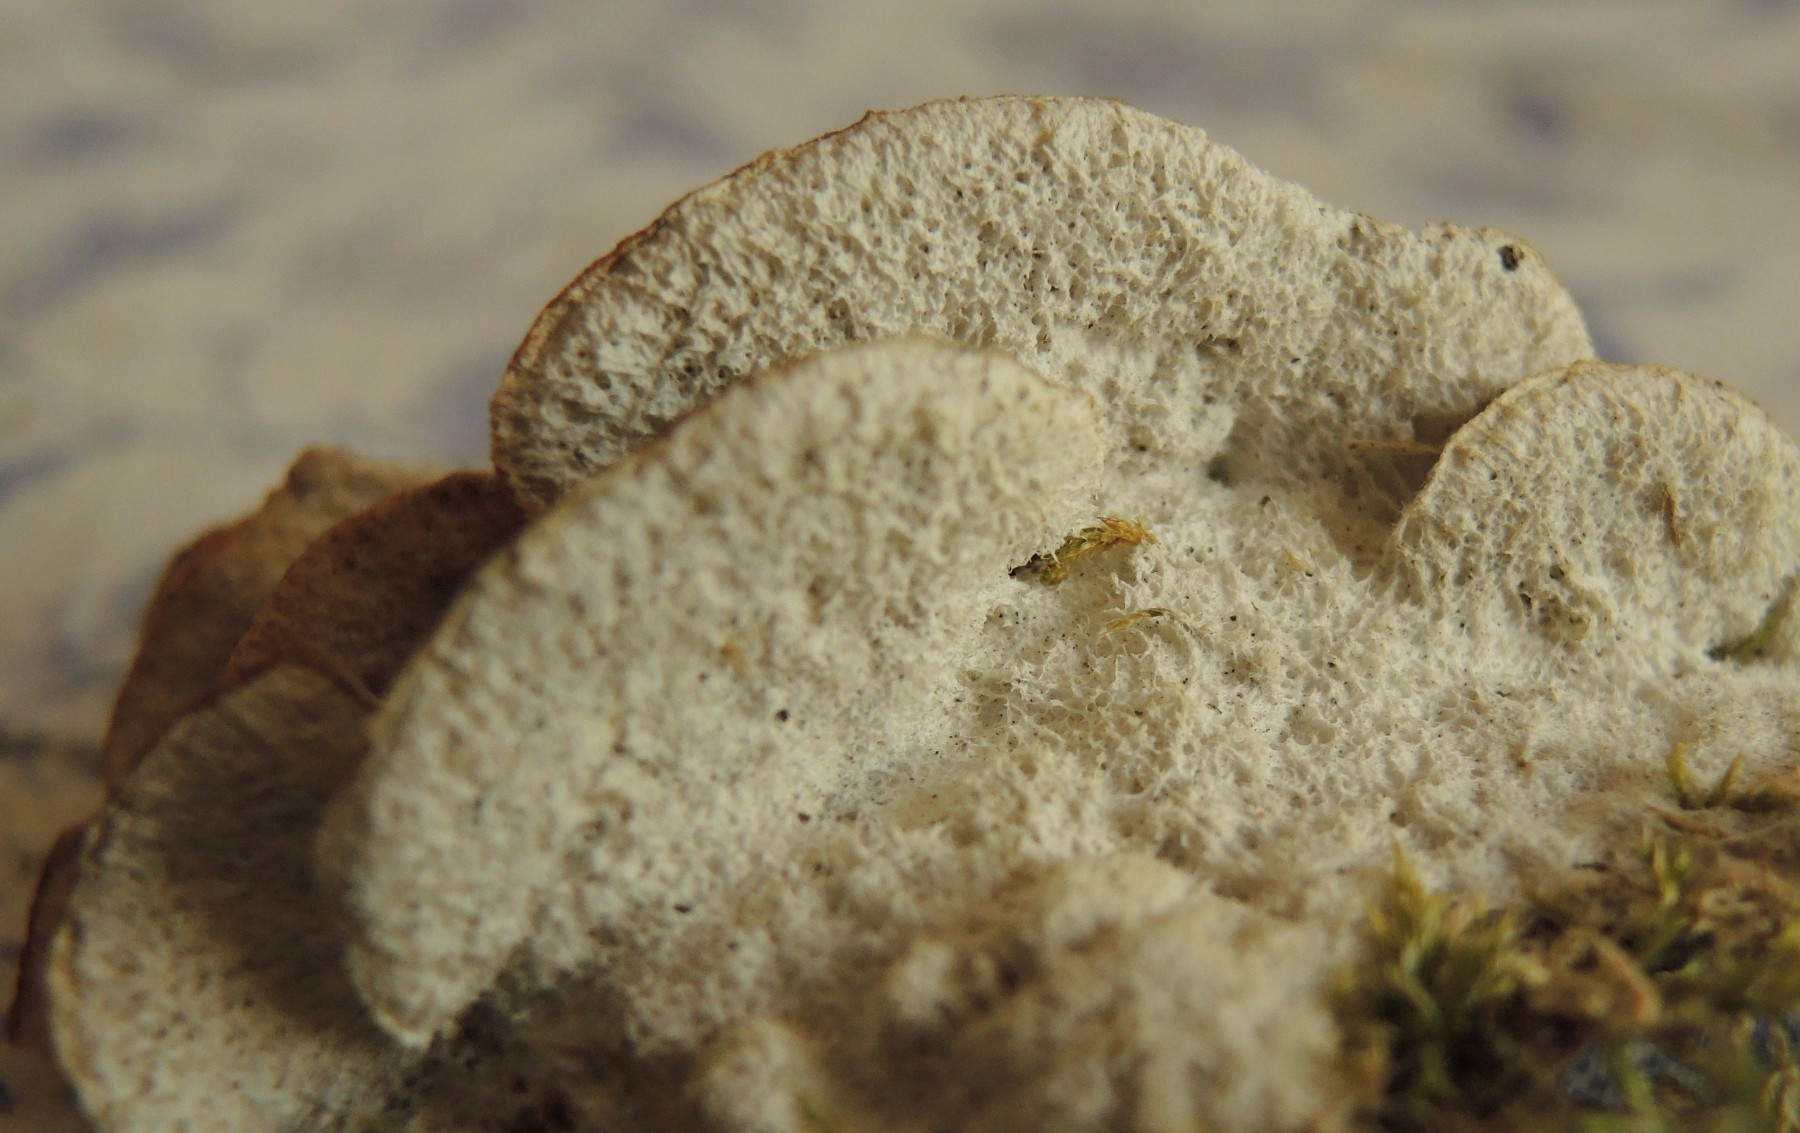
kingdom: Fungi
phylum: Basidiomycota
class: Agaricomycetes
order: Polyporales
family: Irpicaceae
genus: Vitreoporus
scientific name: Vitreoporus dichrous
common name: tofarvet foldporesvamp
